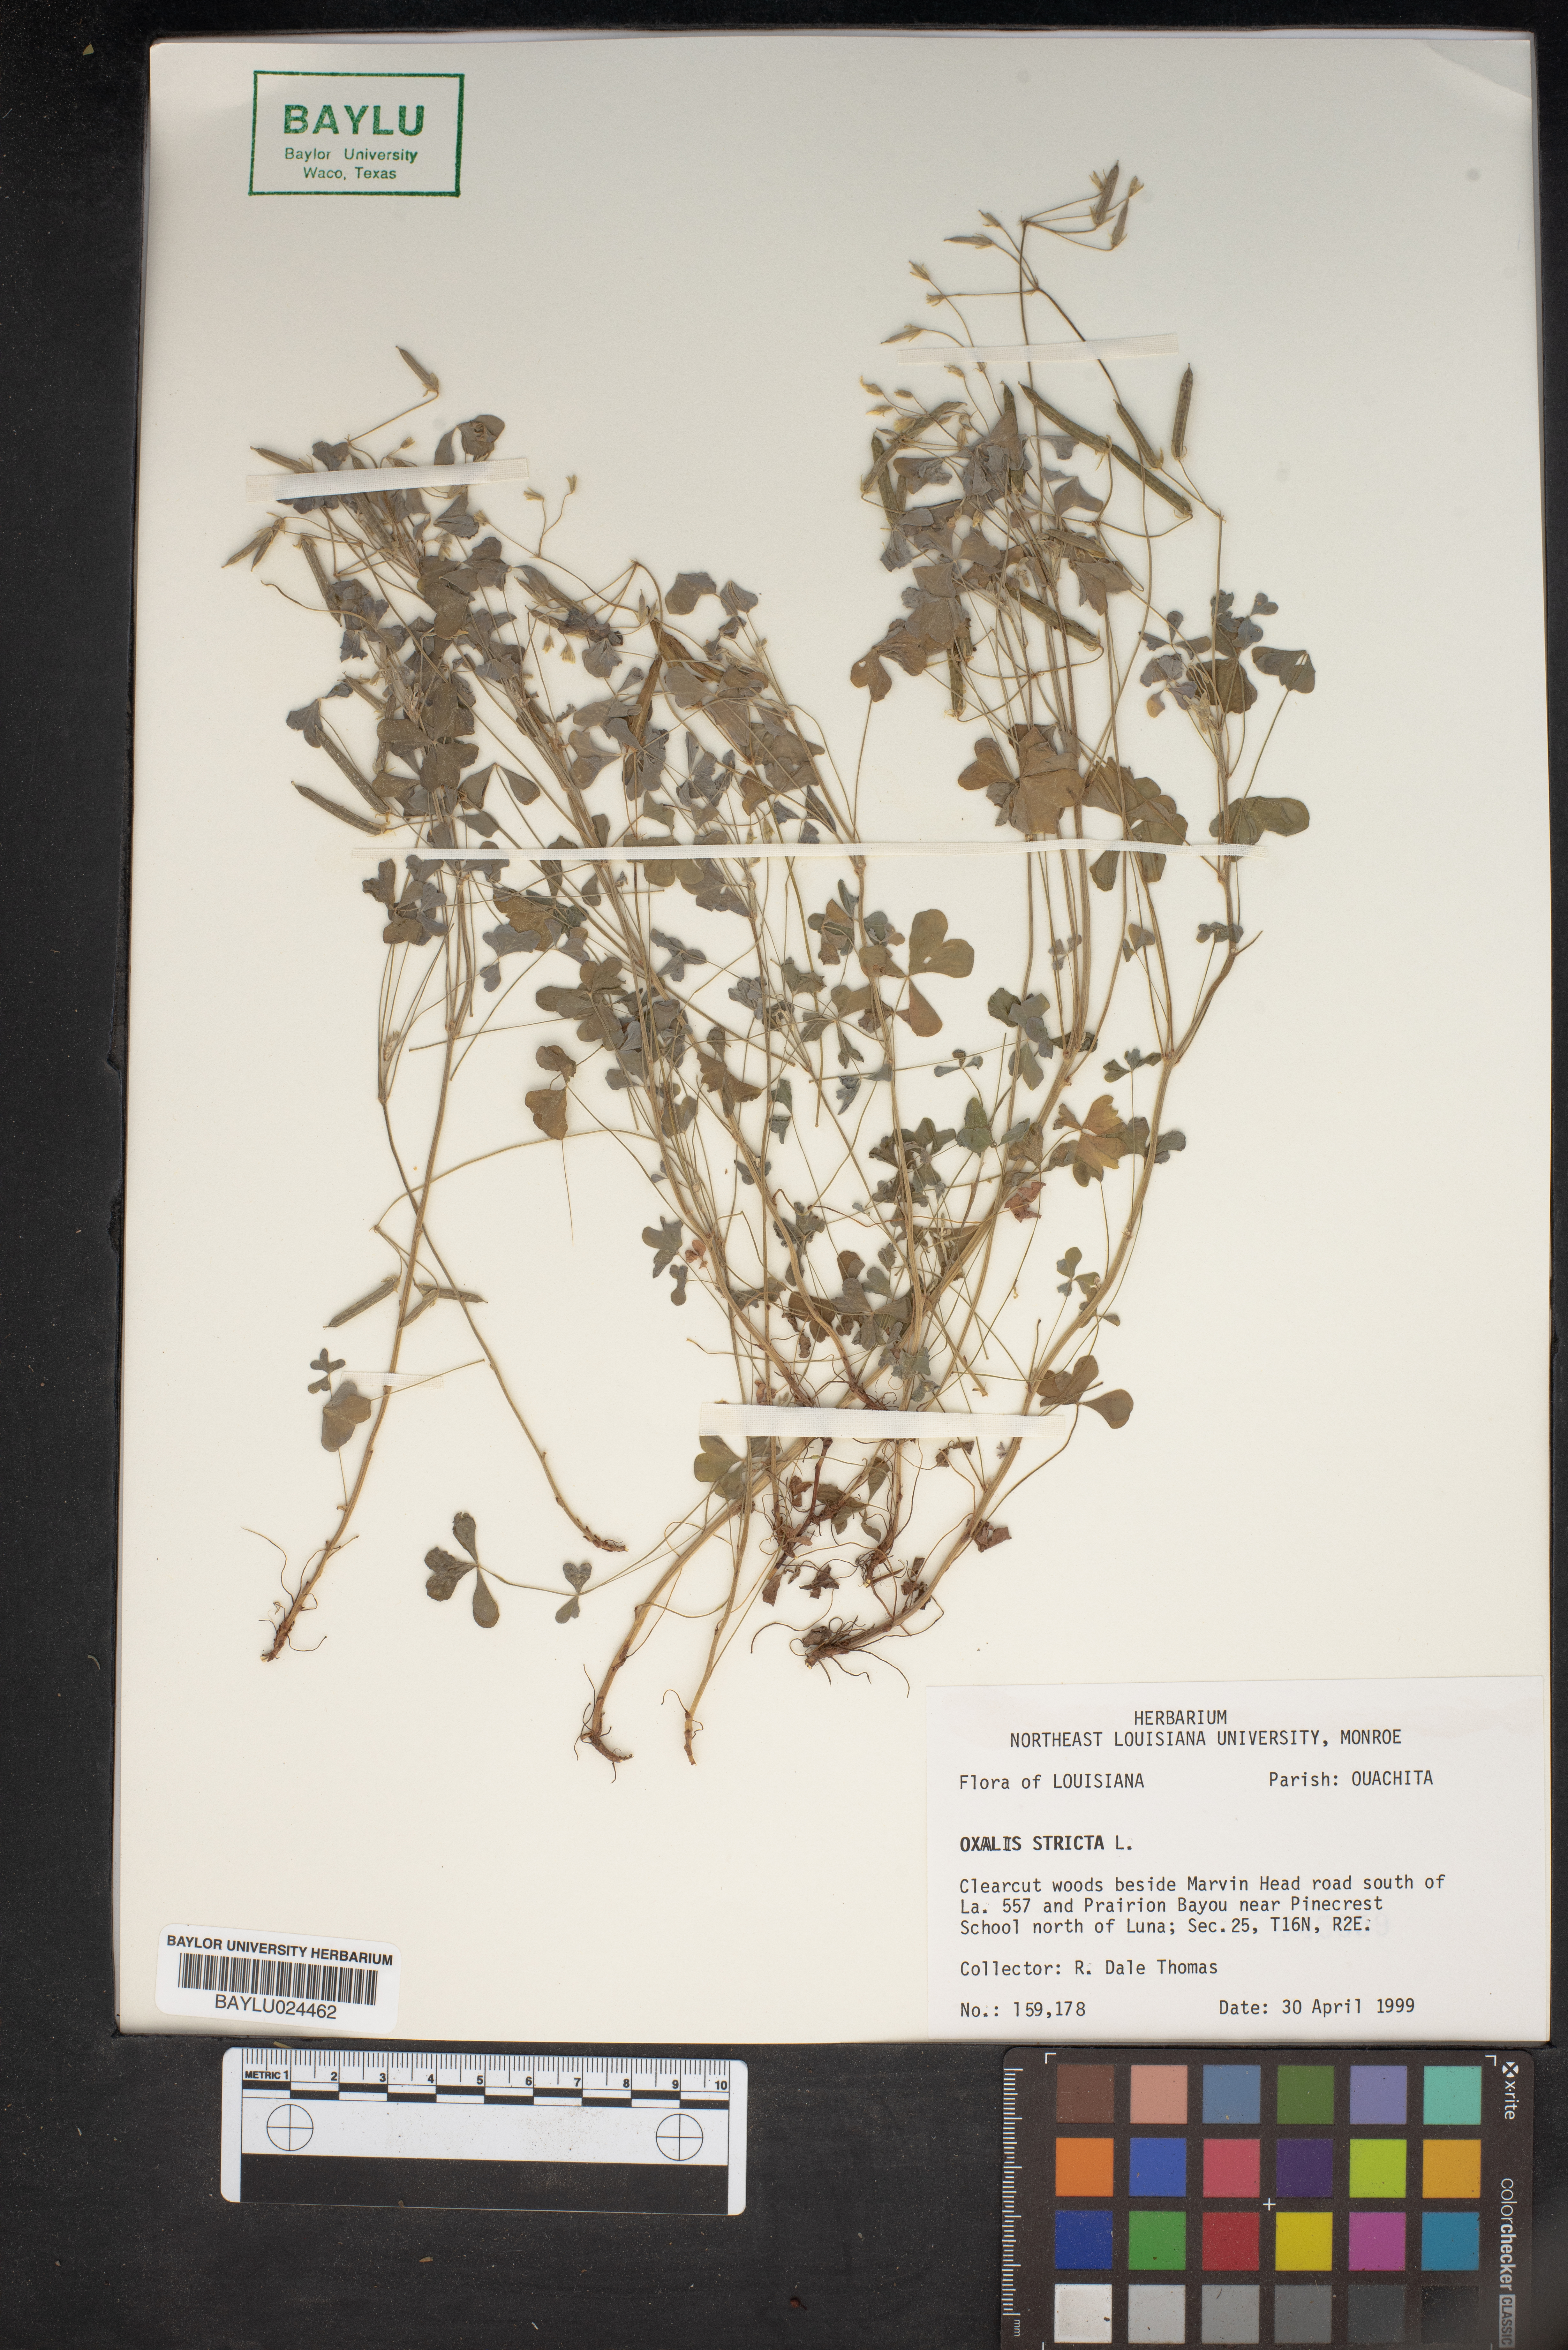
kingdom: Plantae
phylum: Tracheophyta
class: Magnoliopsida
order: Oxalidales
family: Oxalidaceae
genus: Oxalis
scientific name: Oxalis stricta
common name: Upright yellow-sorrel
